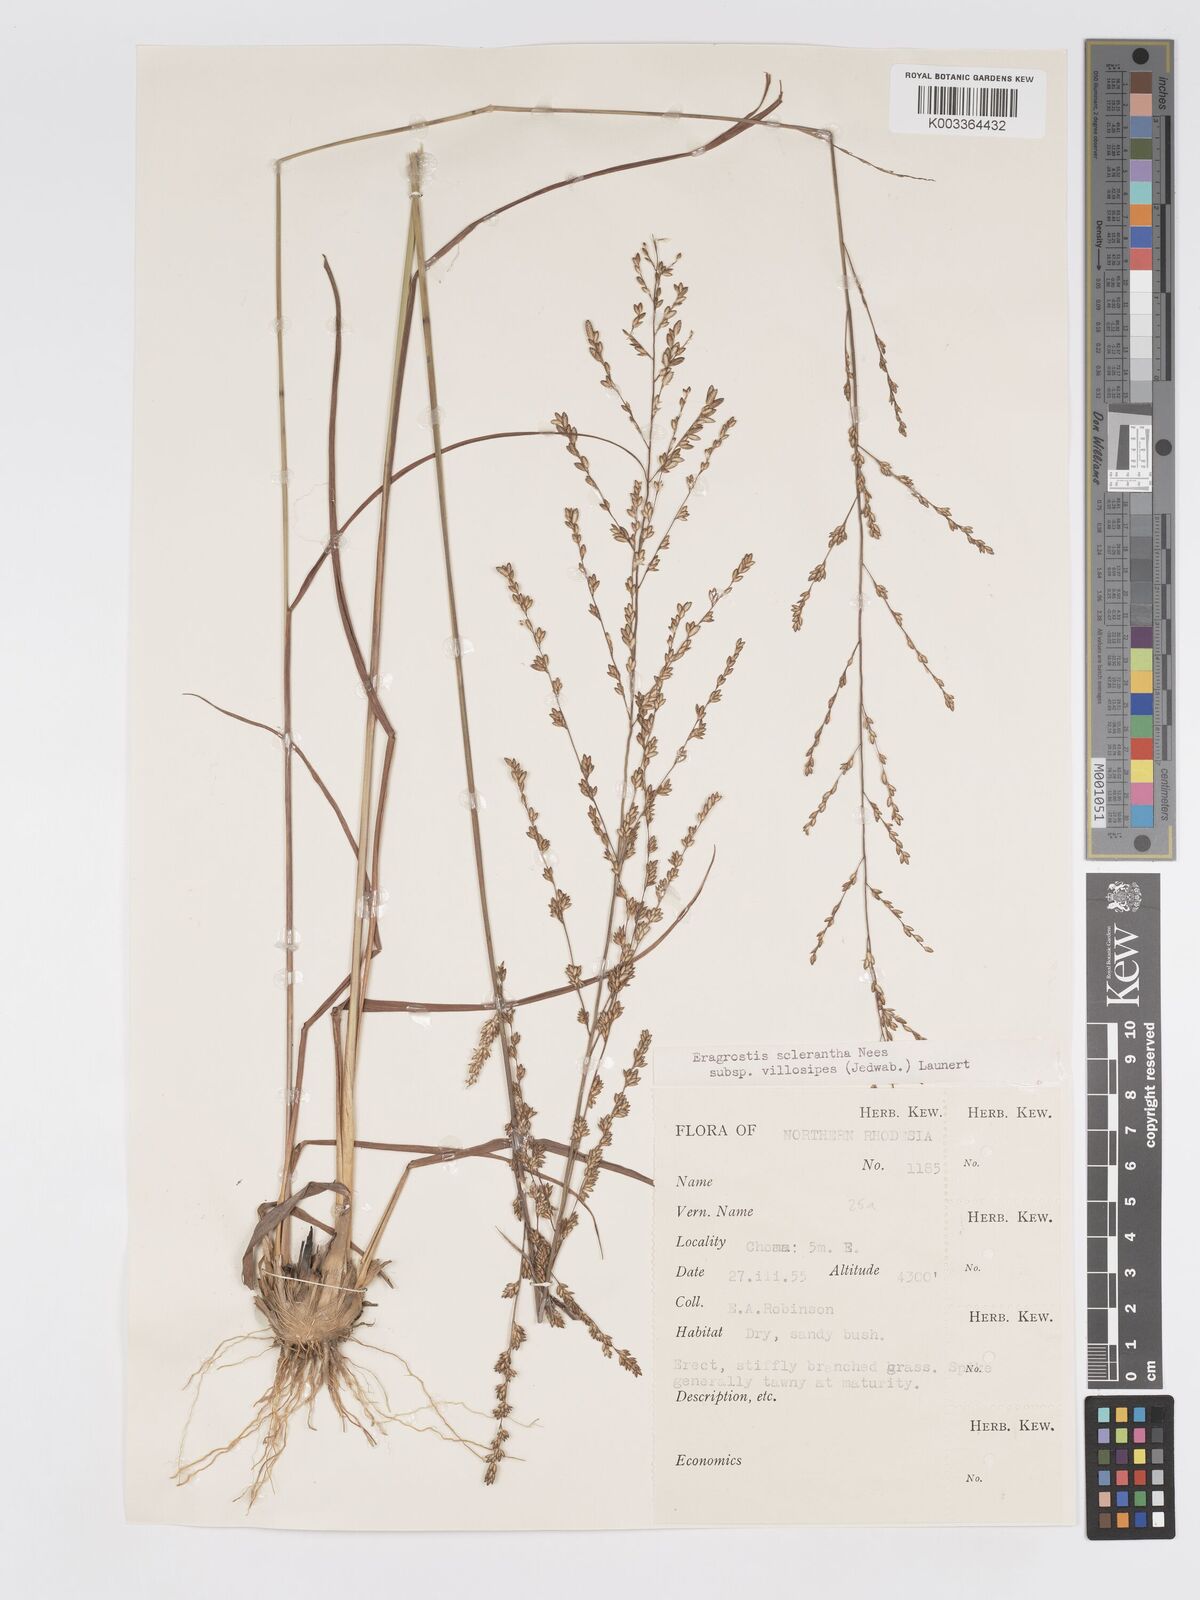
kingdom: Plantae
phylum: Tracheophyta
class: Liliopsida
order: Poales
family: Poaceae
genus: Eragrostis
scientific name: Eragrostis sclerantha
